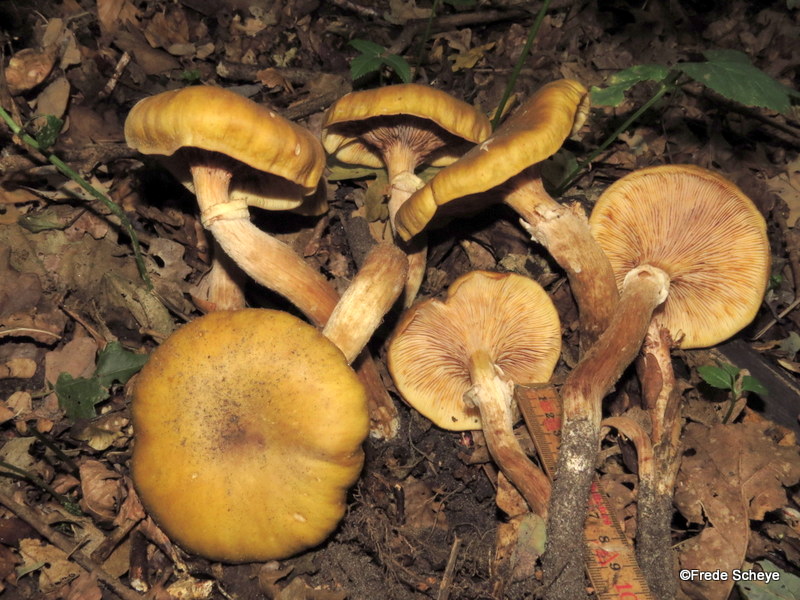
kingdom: Fungi
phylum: Basidiomycota
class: Agaricomycetes
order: Agaricales
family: Physalacriaceae
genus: Armillaria
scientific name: Armillaria mellea
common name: ægte honningsvamp
